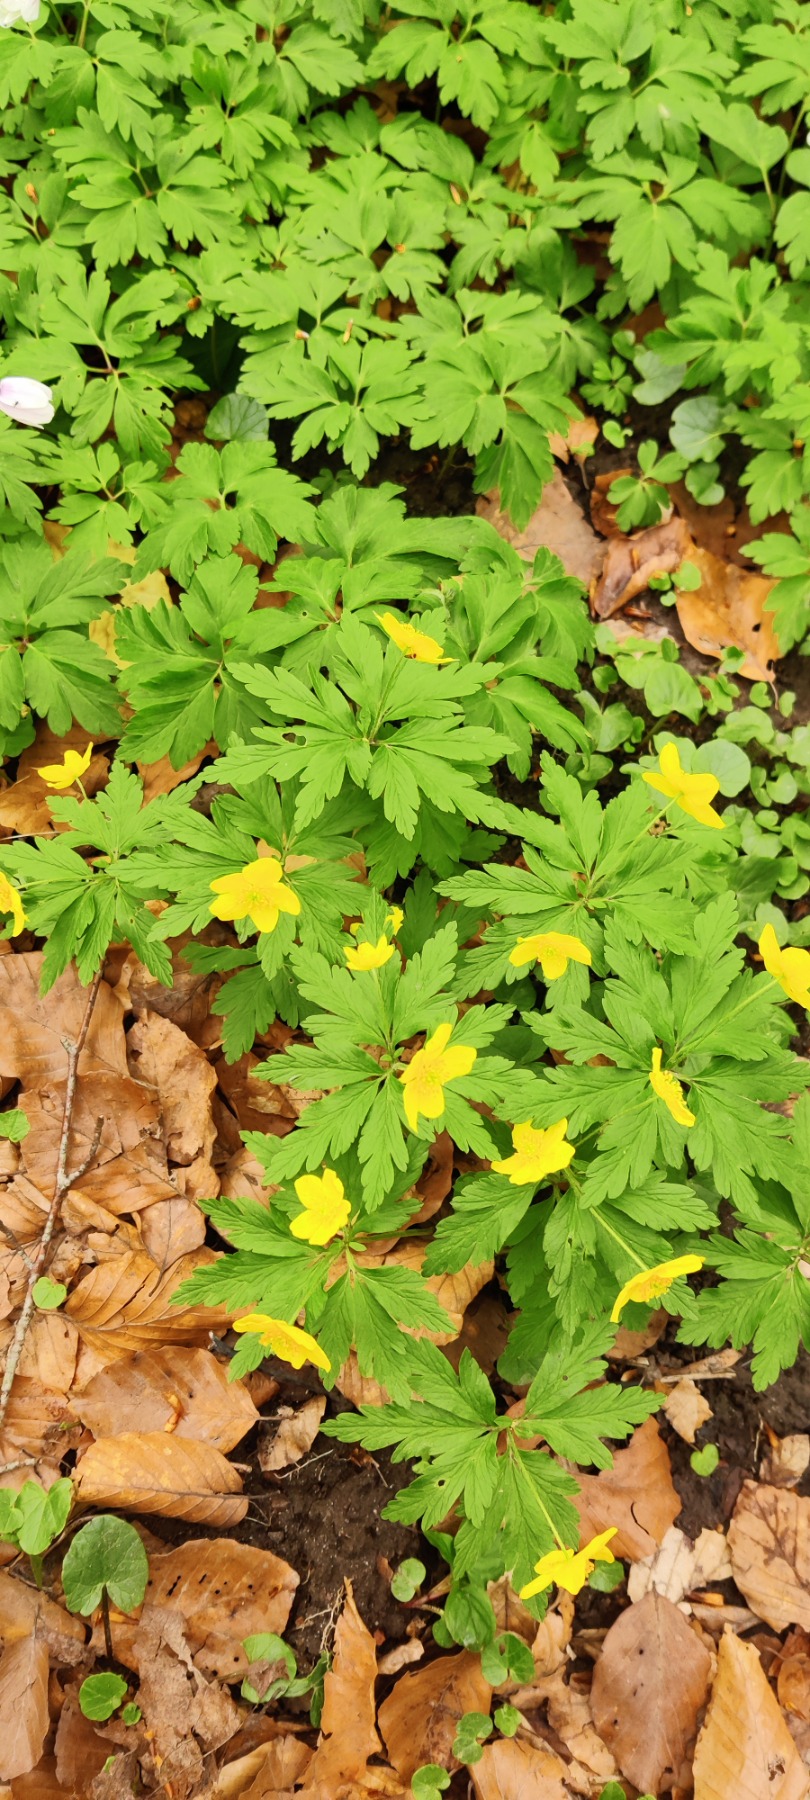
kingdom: Plantae
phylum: Tracheophyta
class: Magnoliopsida
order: Ranunculales
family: Ranunculaceae
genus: Anemone
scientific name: Anemone ranunculoides
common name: Gul anemone
